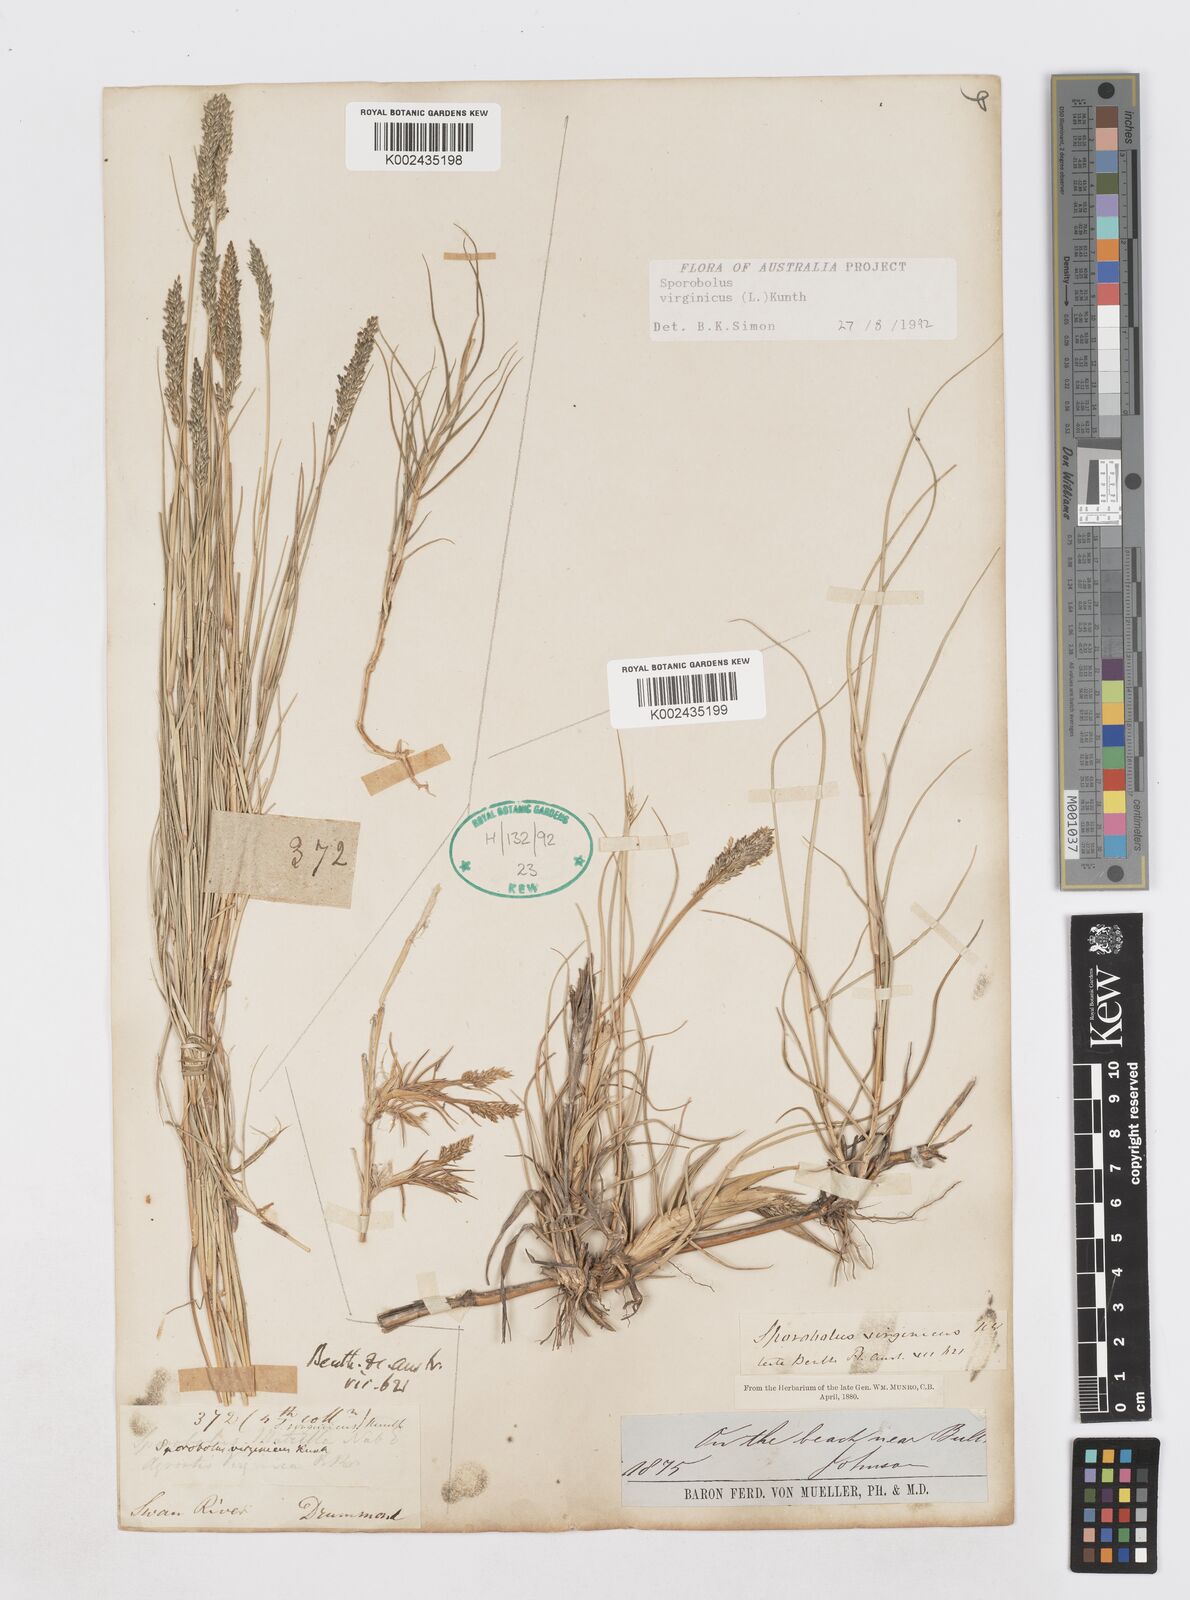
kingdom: Plantae
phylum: Tracheophyta
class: Liliopsida
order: Poales
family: Poaceae
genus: Sporobolus
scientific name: Sporobolus virginicus
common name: Beach dropseed
